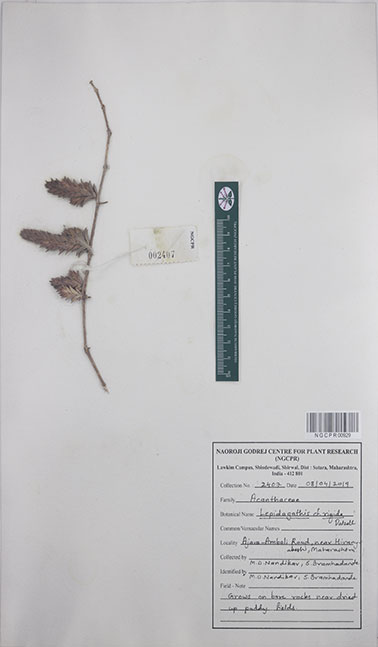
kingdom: Plantae
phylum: Tracheophyta
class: Magnoliopsida
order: Lamiales
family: Acanthaceae
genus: Lepidagathis
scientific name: Lepidagathis rigida
